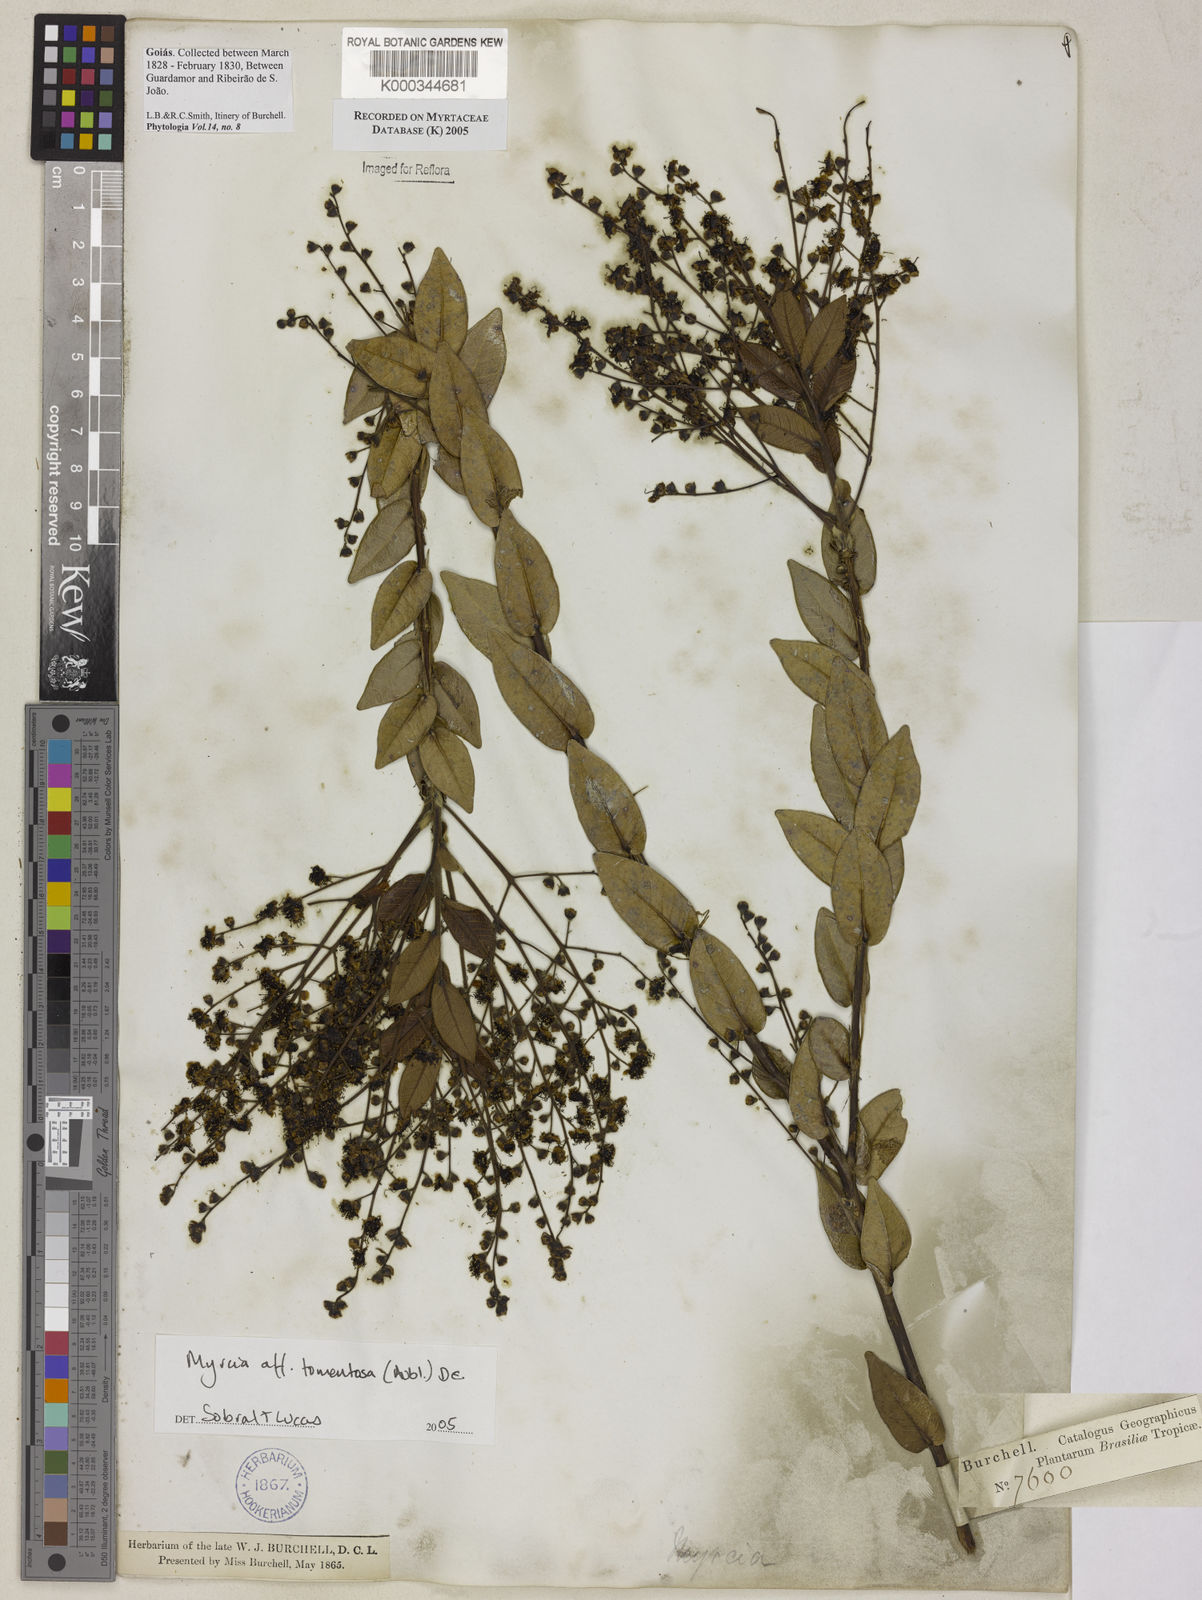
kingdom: Plantae
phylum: Tracheophyta
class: Magnoliopsida
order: Myrtales
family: Myrtaceae
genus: Myrcia
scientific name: Myrcia tomentosa
